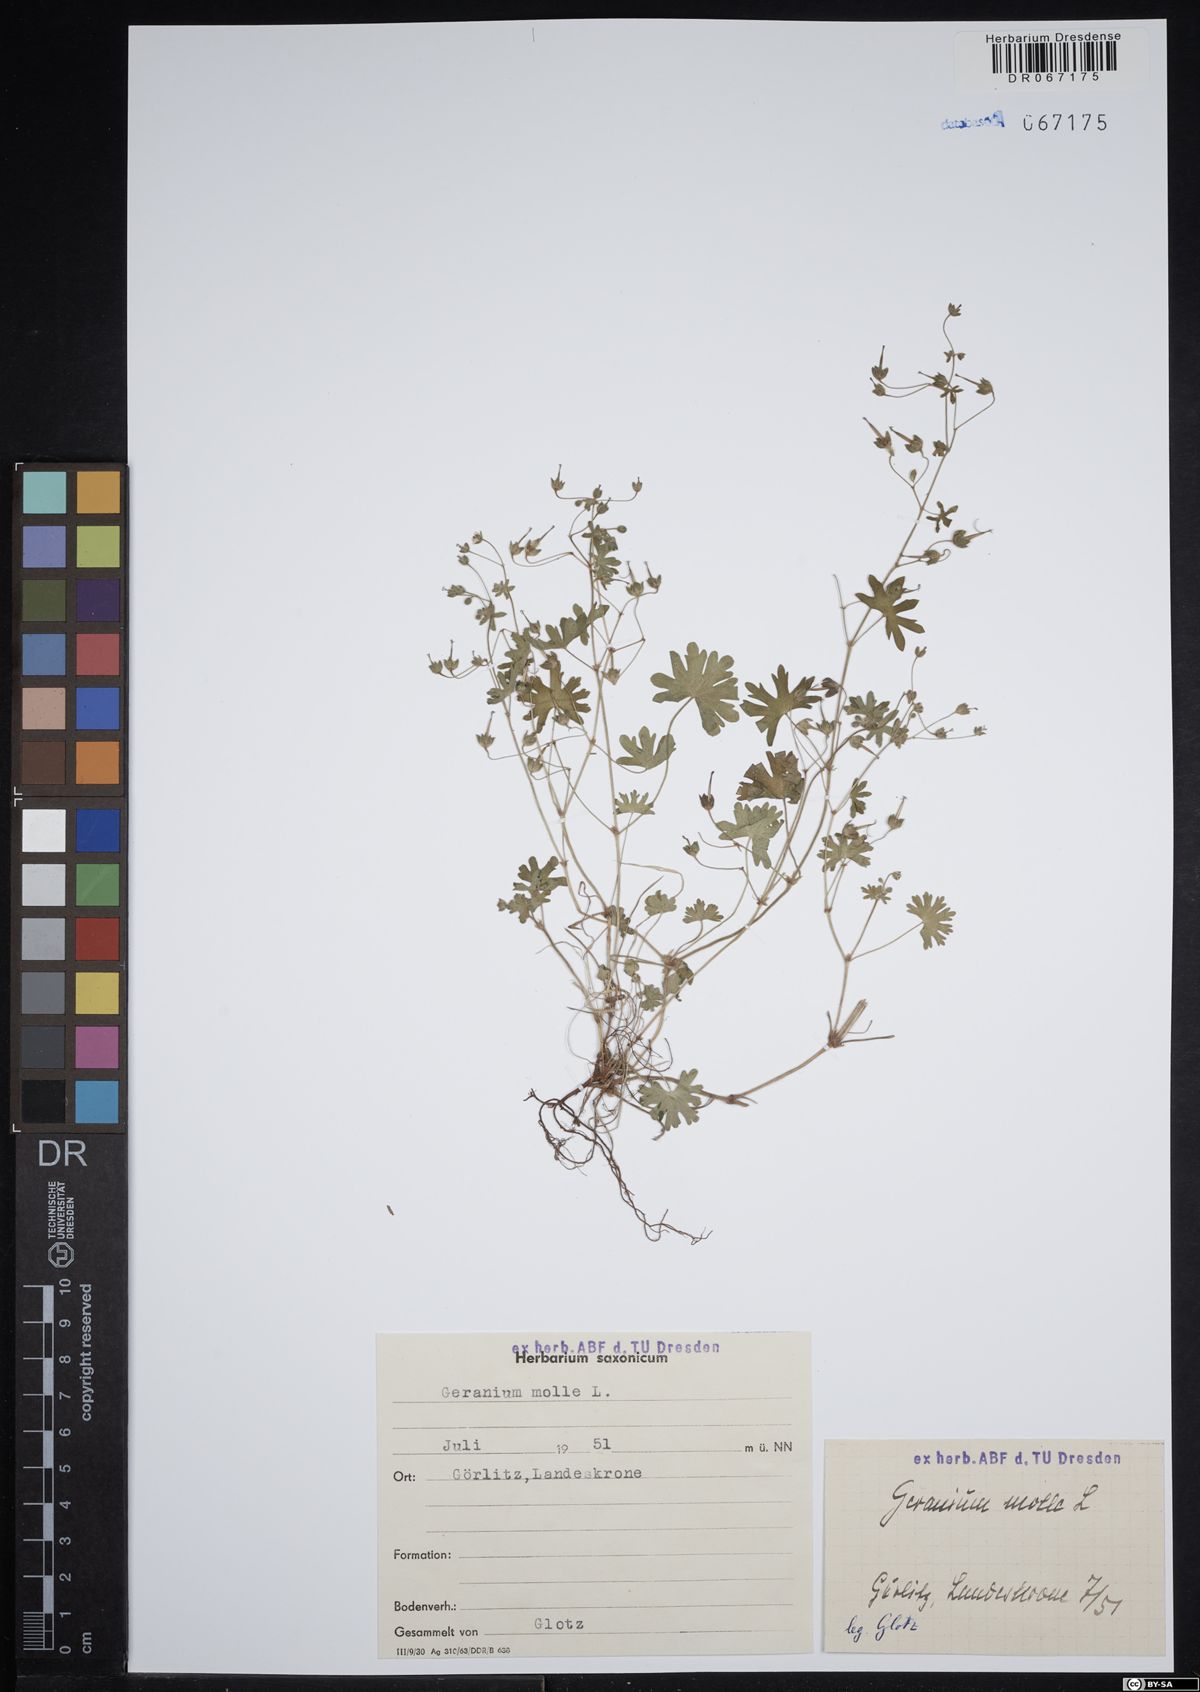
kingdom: Plantae
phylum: Tracheophyta
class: Magnoliopsida
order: Geraniales
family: Geraniaceae
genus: Geranium
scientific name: Geranium molle
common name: Dove's-foot crane's-bill
